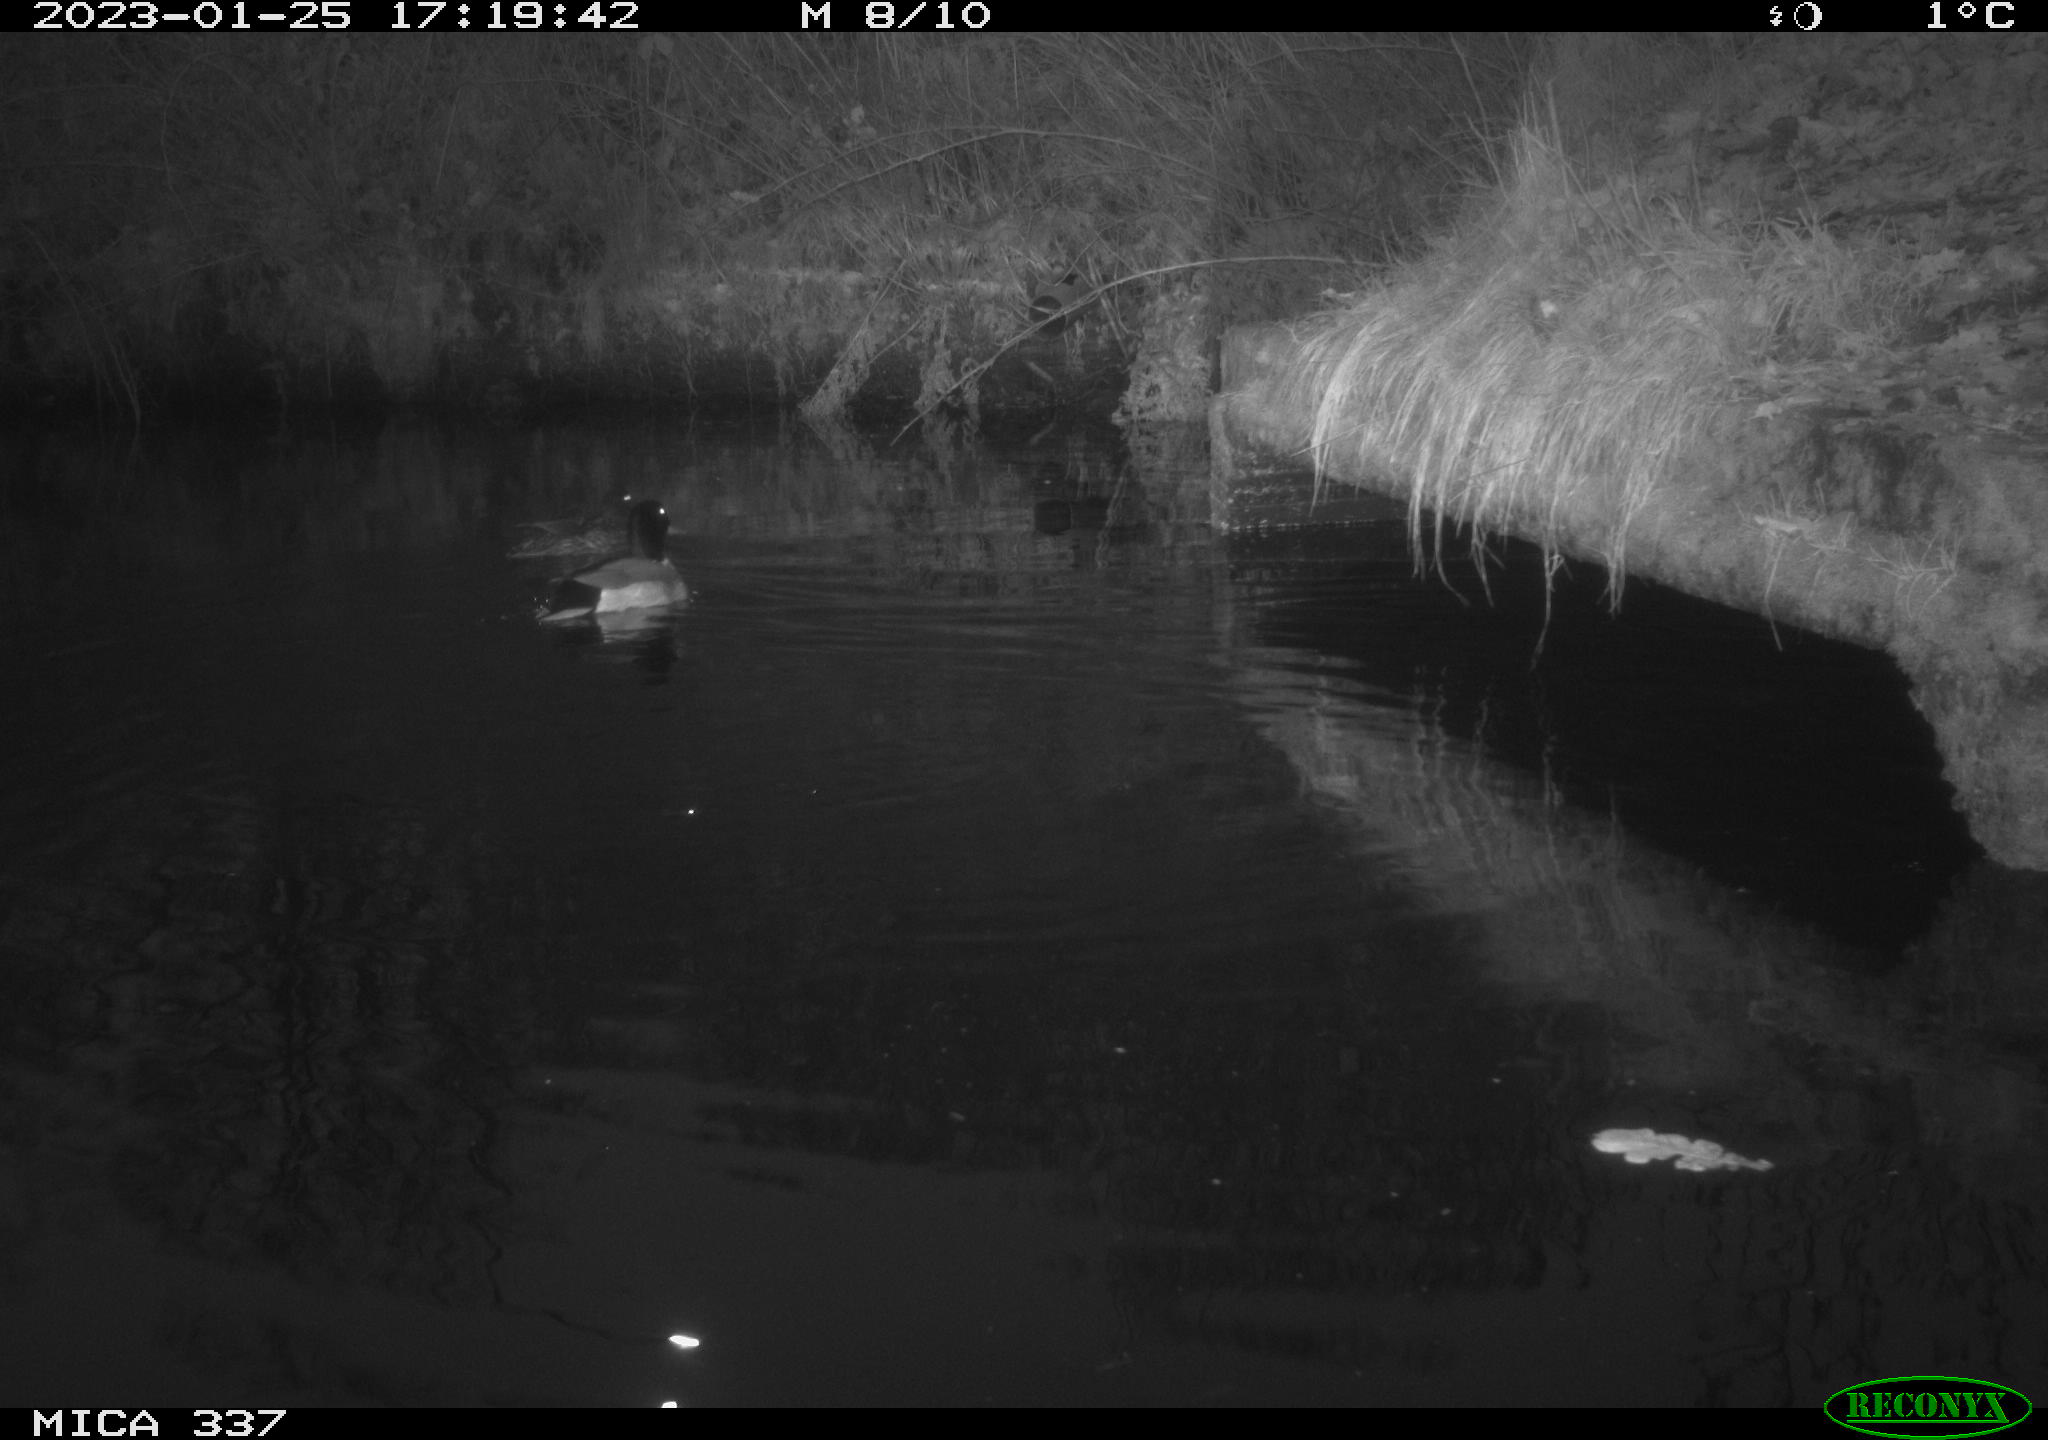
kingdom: Animalia
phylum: Chordata
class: Aves
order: Anseriformes
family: Anatidae
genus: Anas
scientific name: Anas
